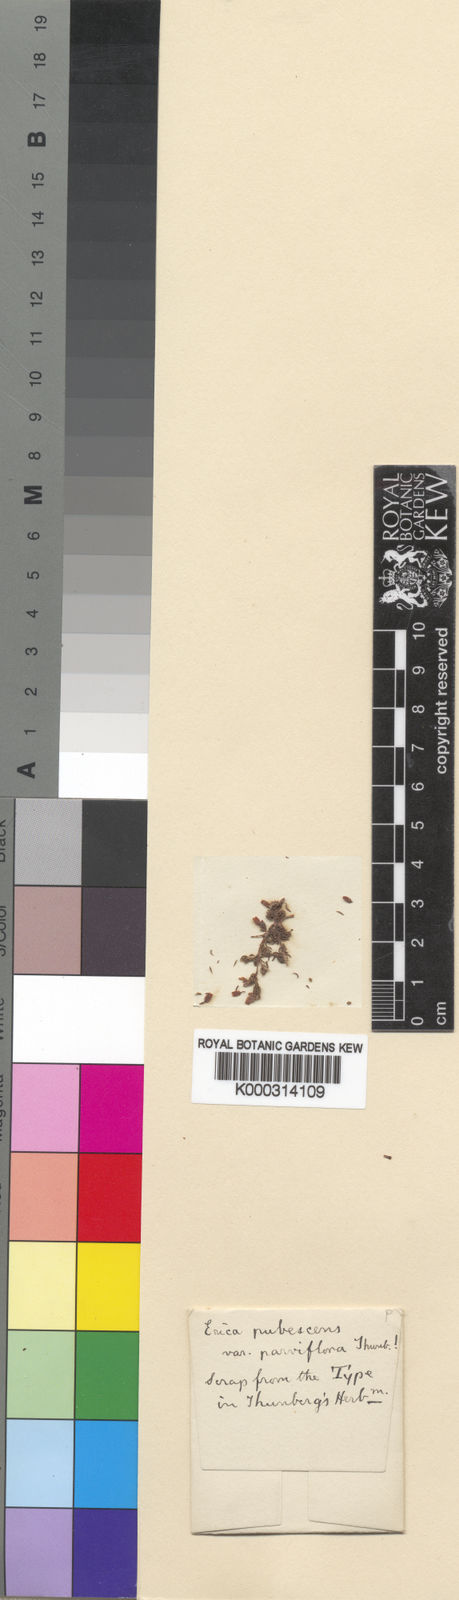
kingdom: Plantae
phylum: Tracheophyta
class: Magnoliopsida
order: Ericales
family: Ericaceae
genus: Erica
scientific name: Erica hirtiflora
